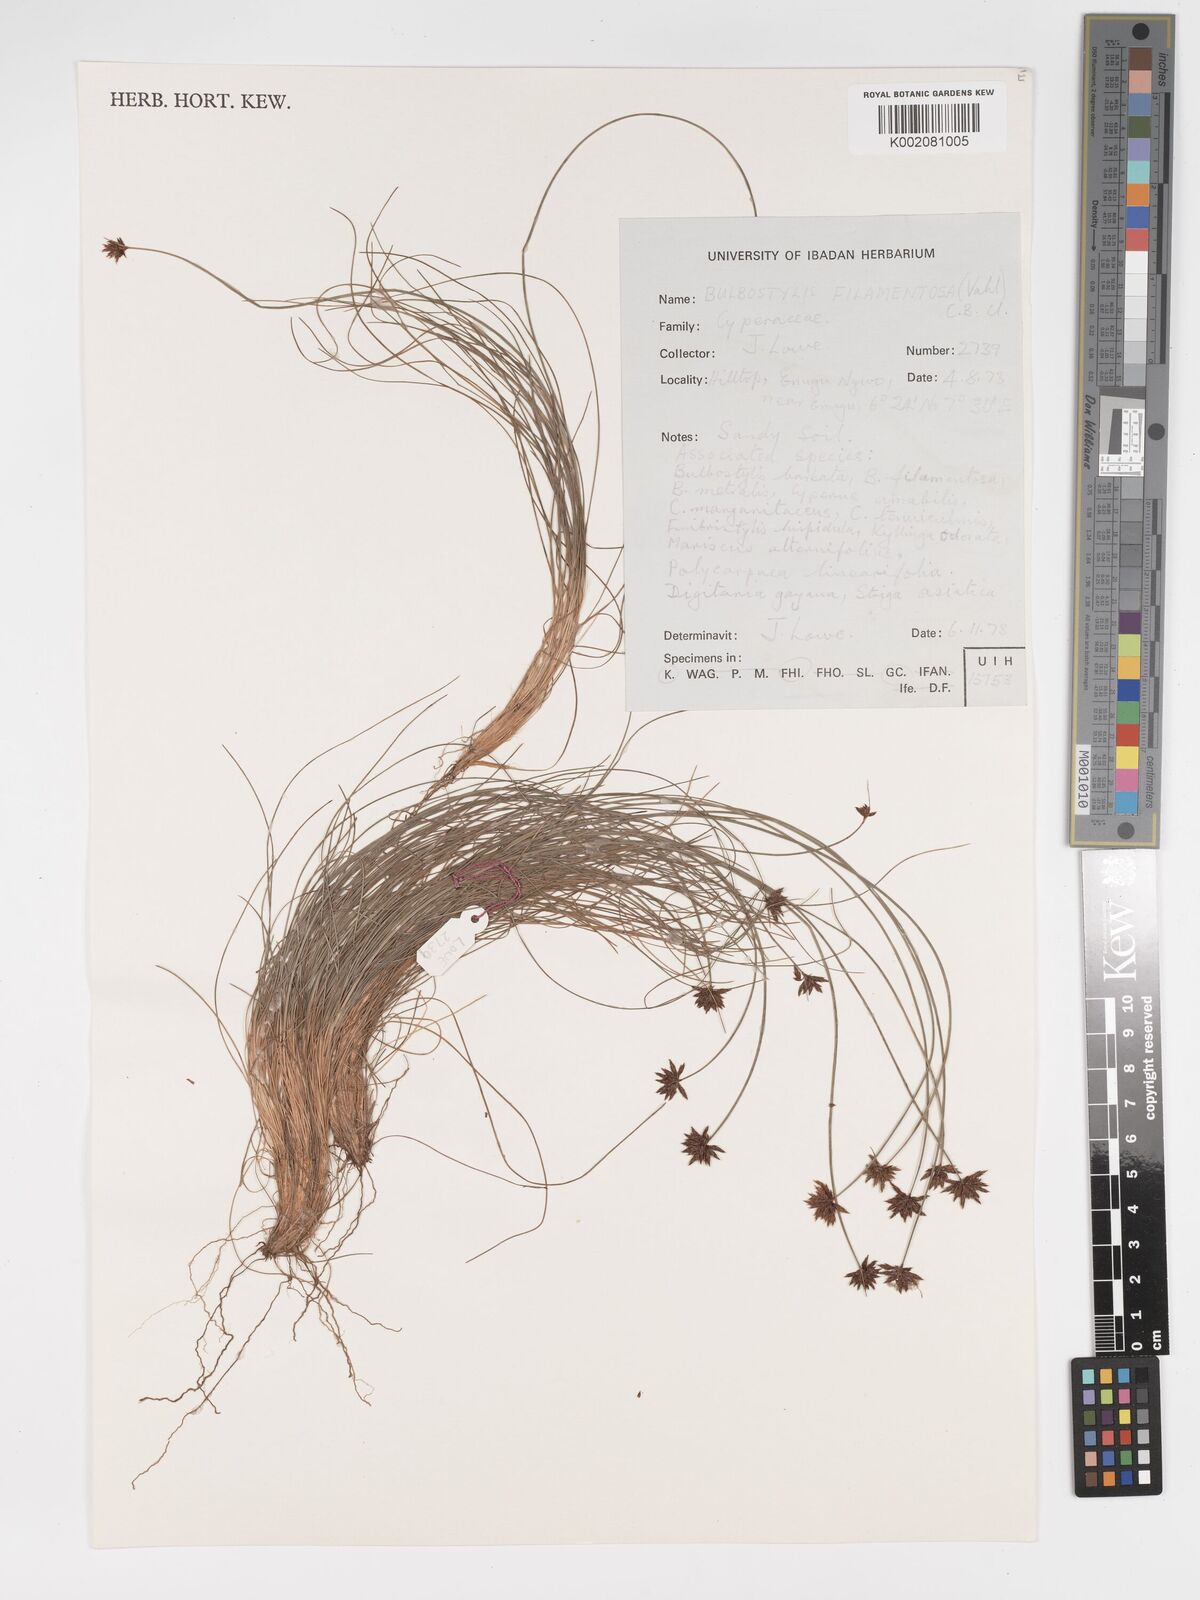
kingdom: Plantae
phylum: Tracheophyta
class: Liliopsida
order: Poales
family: Cyperaceae
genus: Bulbostylis
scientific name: Bulbostylis filamentosa
